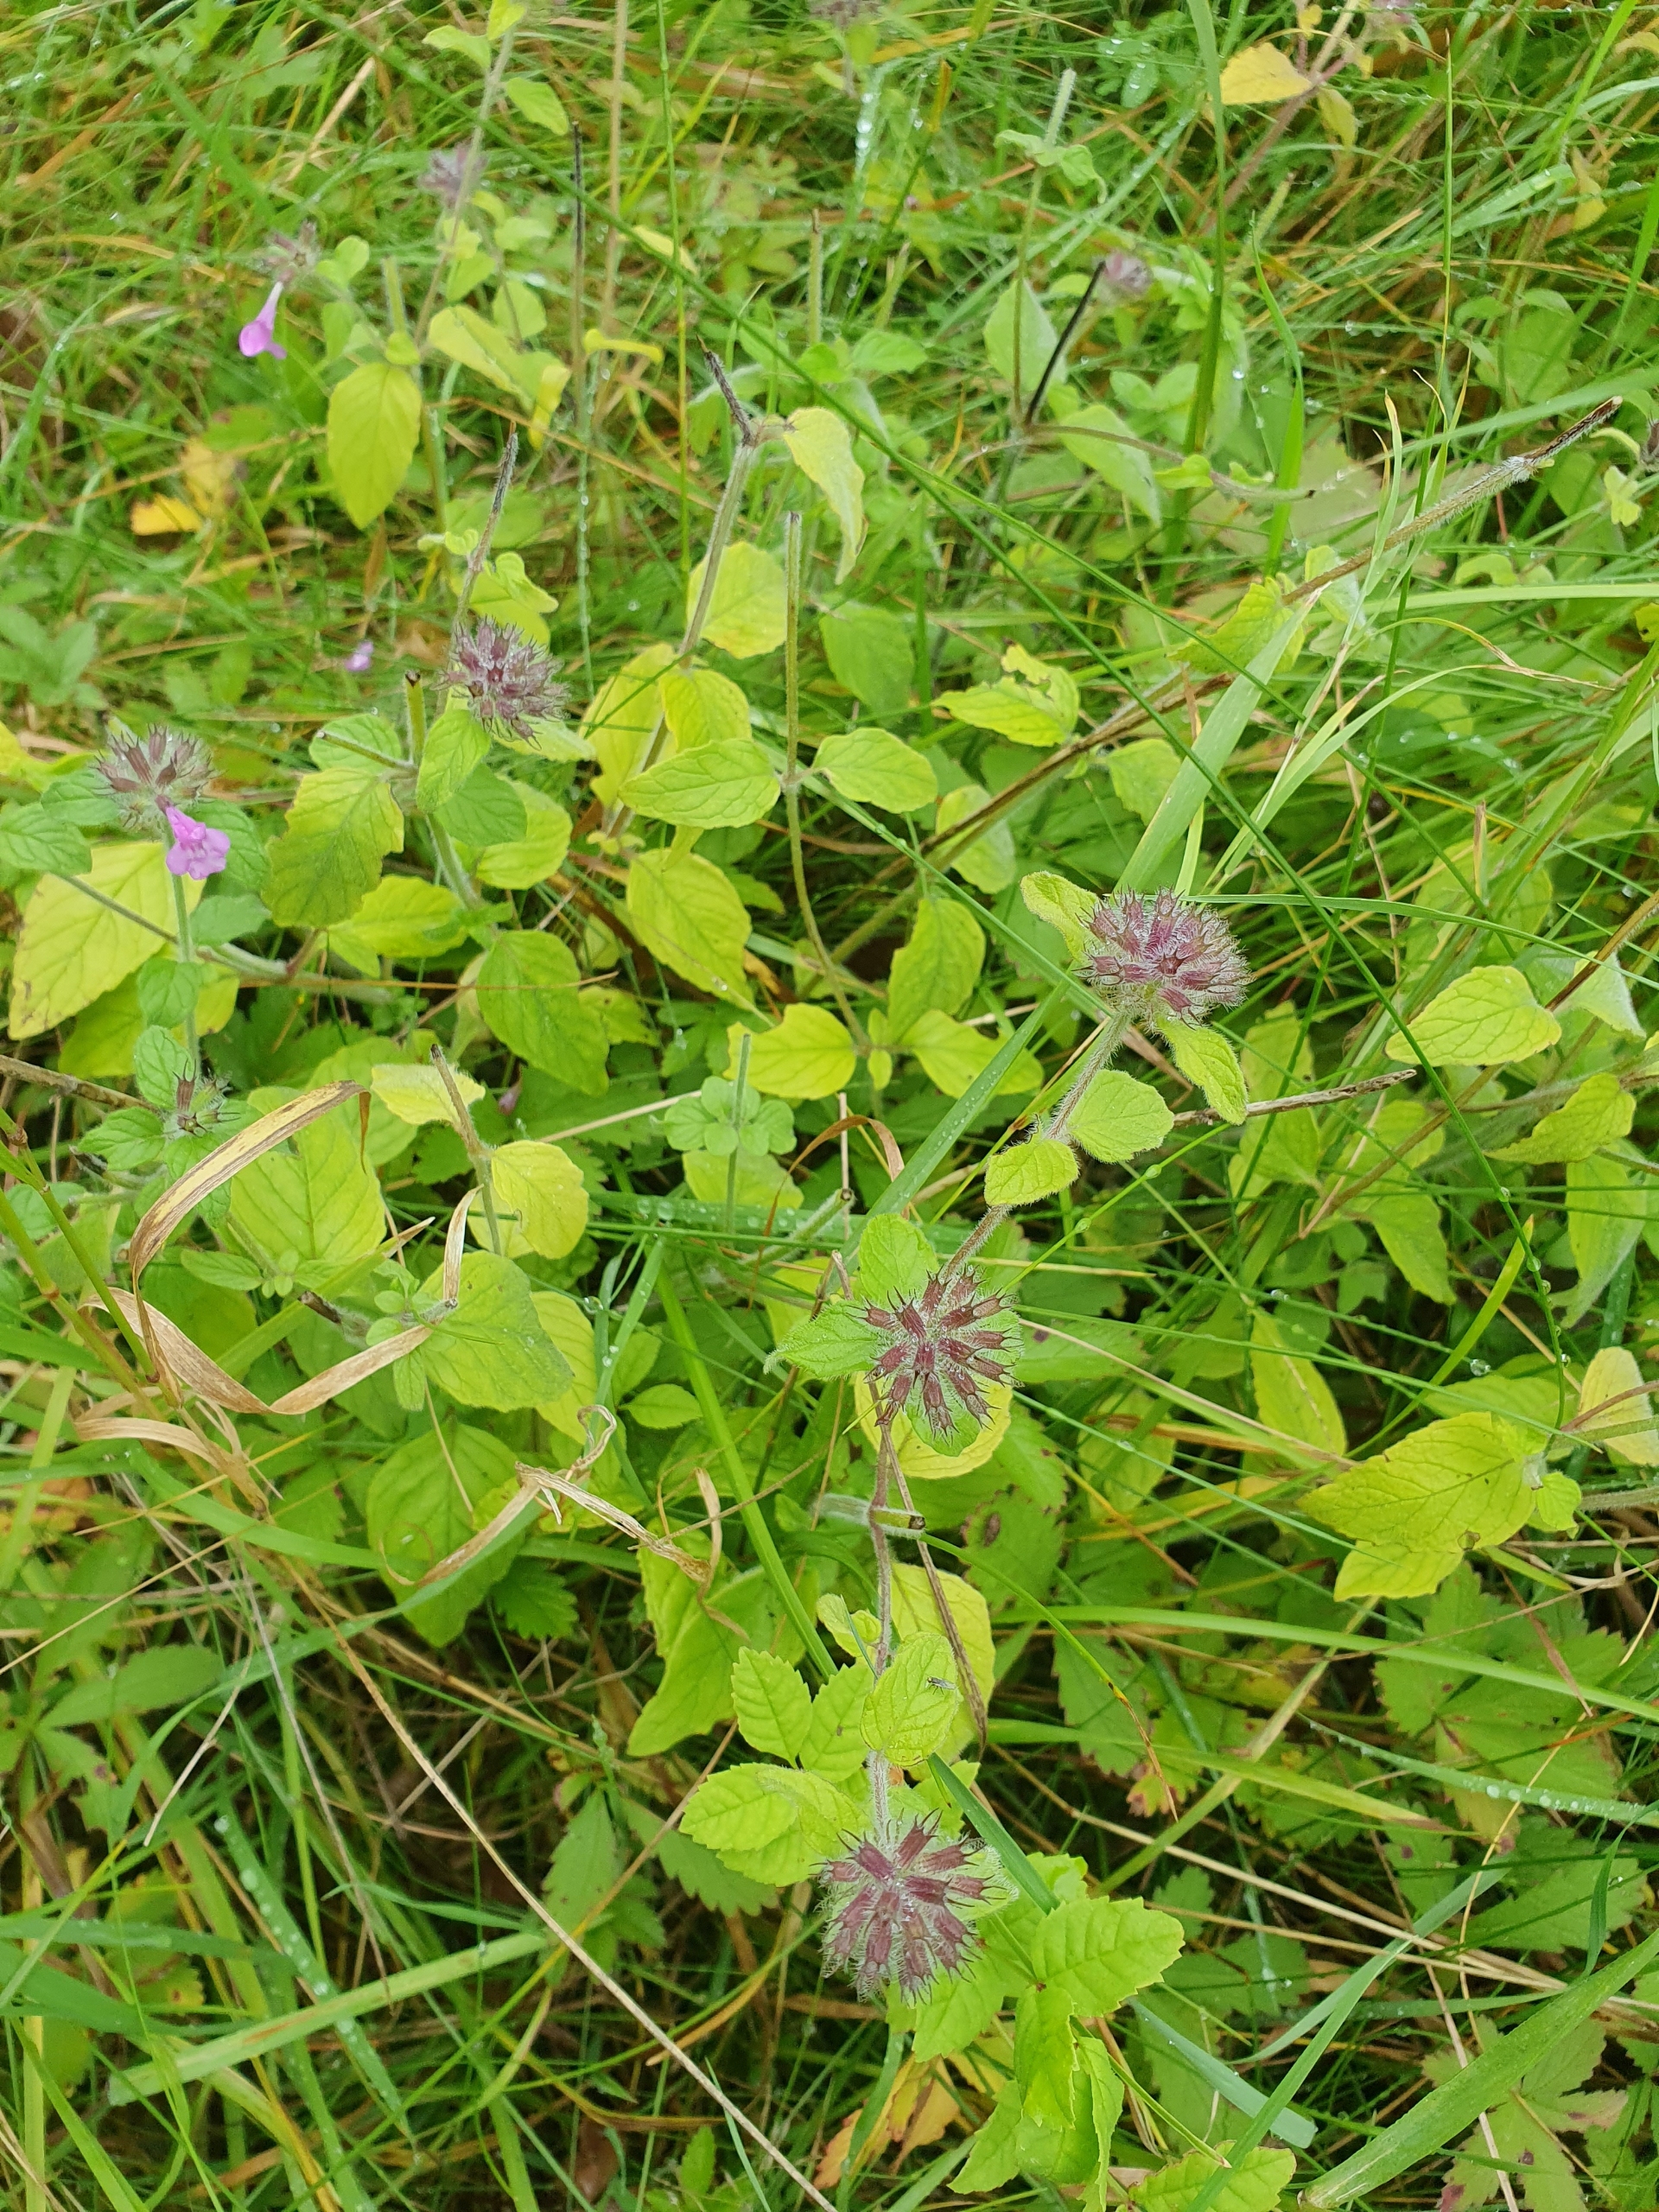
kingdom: Plantae
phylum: Tracheophyta
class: Magnoliopsida
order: Lamiales
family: Lamiaceae
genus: Clinopodium
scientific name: Clinopodium vulgare
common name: Kransbørste
